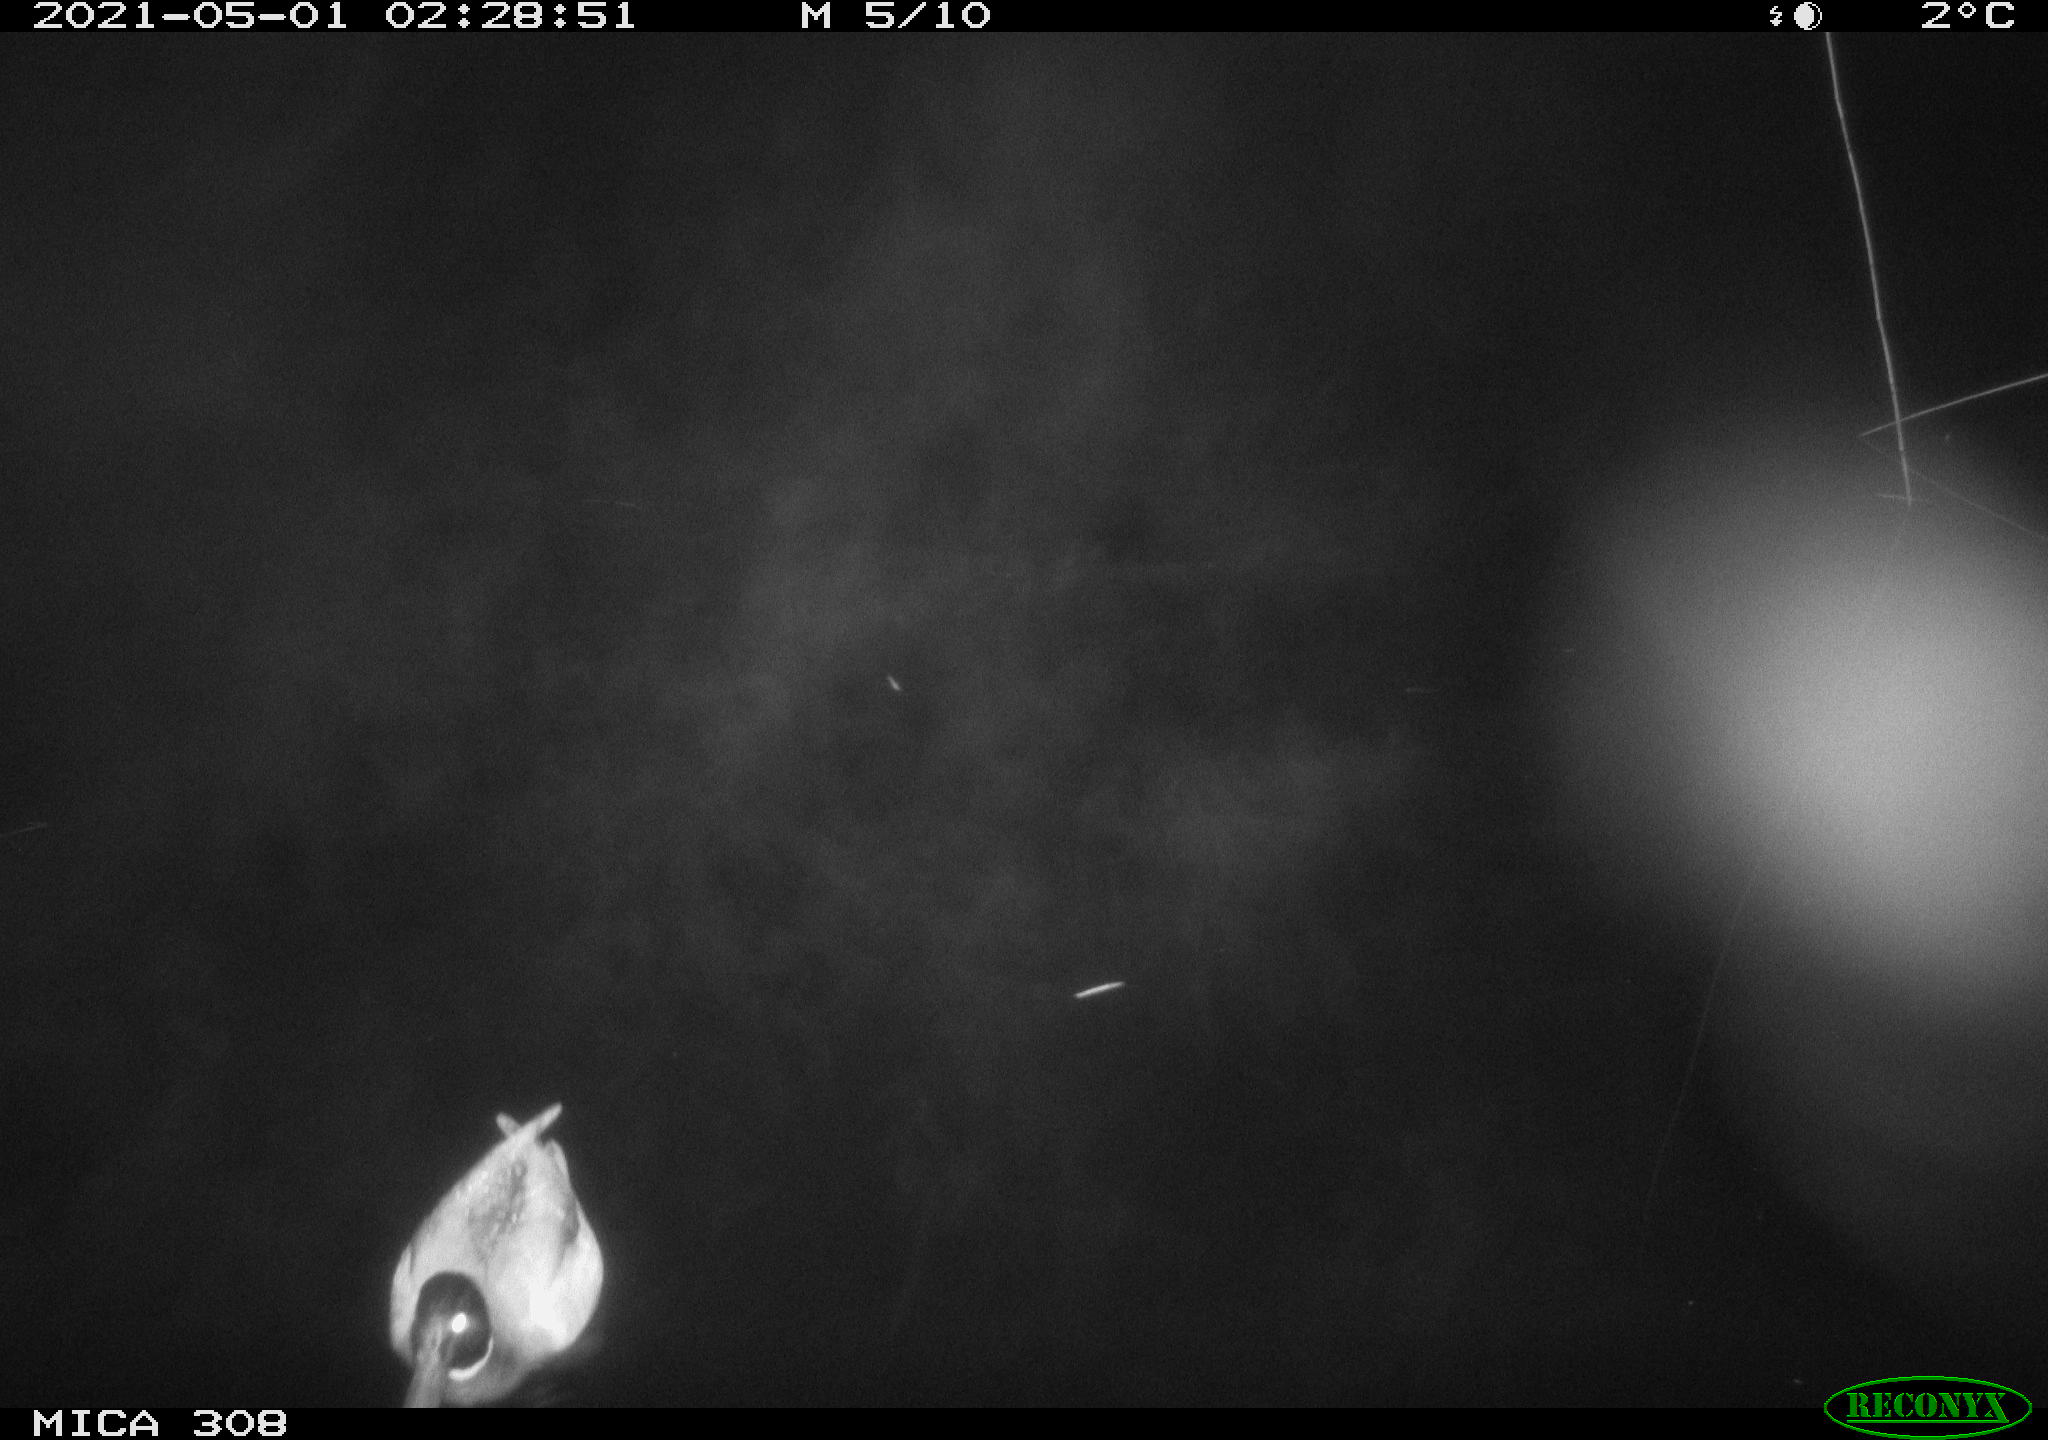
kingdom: Animalia
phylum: Chordata
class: Aves
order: Anseriformes
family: Anatidae
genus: Anas
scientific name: Anas platyrhynchos
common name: Mallard
